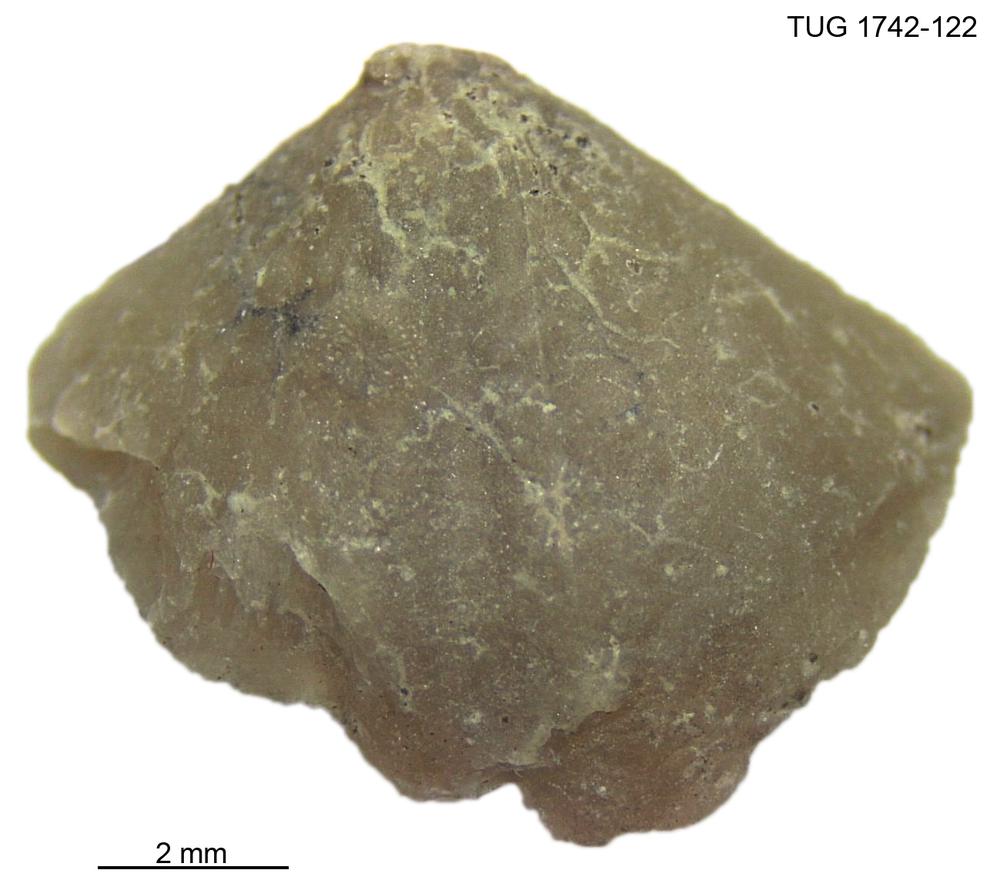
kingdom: Animalia
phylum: Brachiopoda
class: Rhynchonellata
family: Cyrtiidae
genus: Cyrtia
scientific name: Cyrtia
